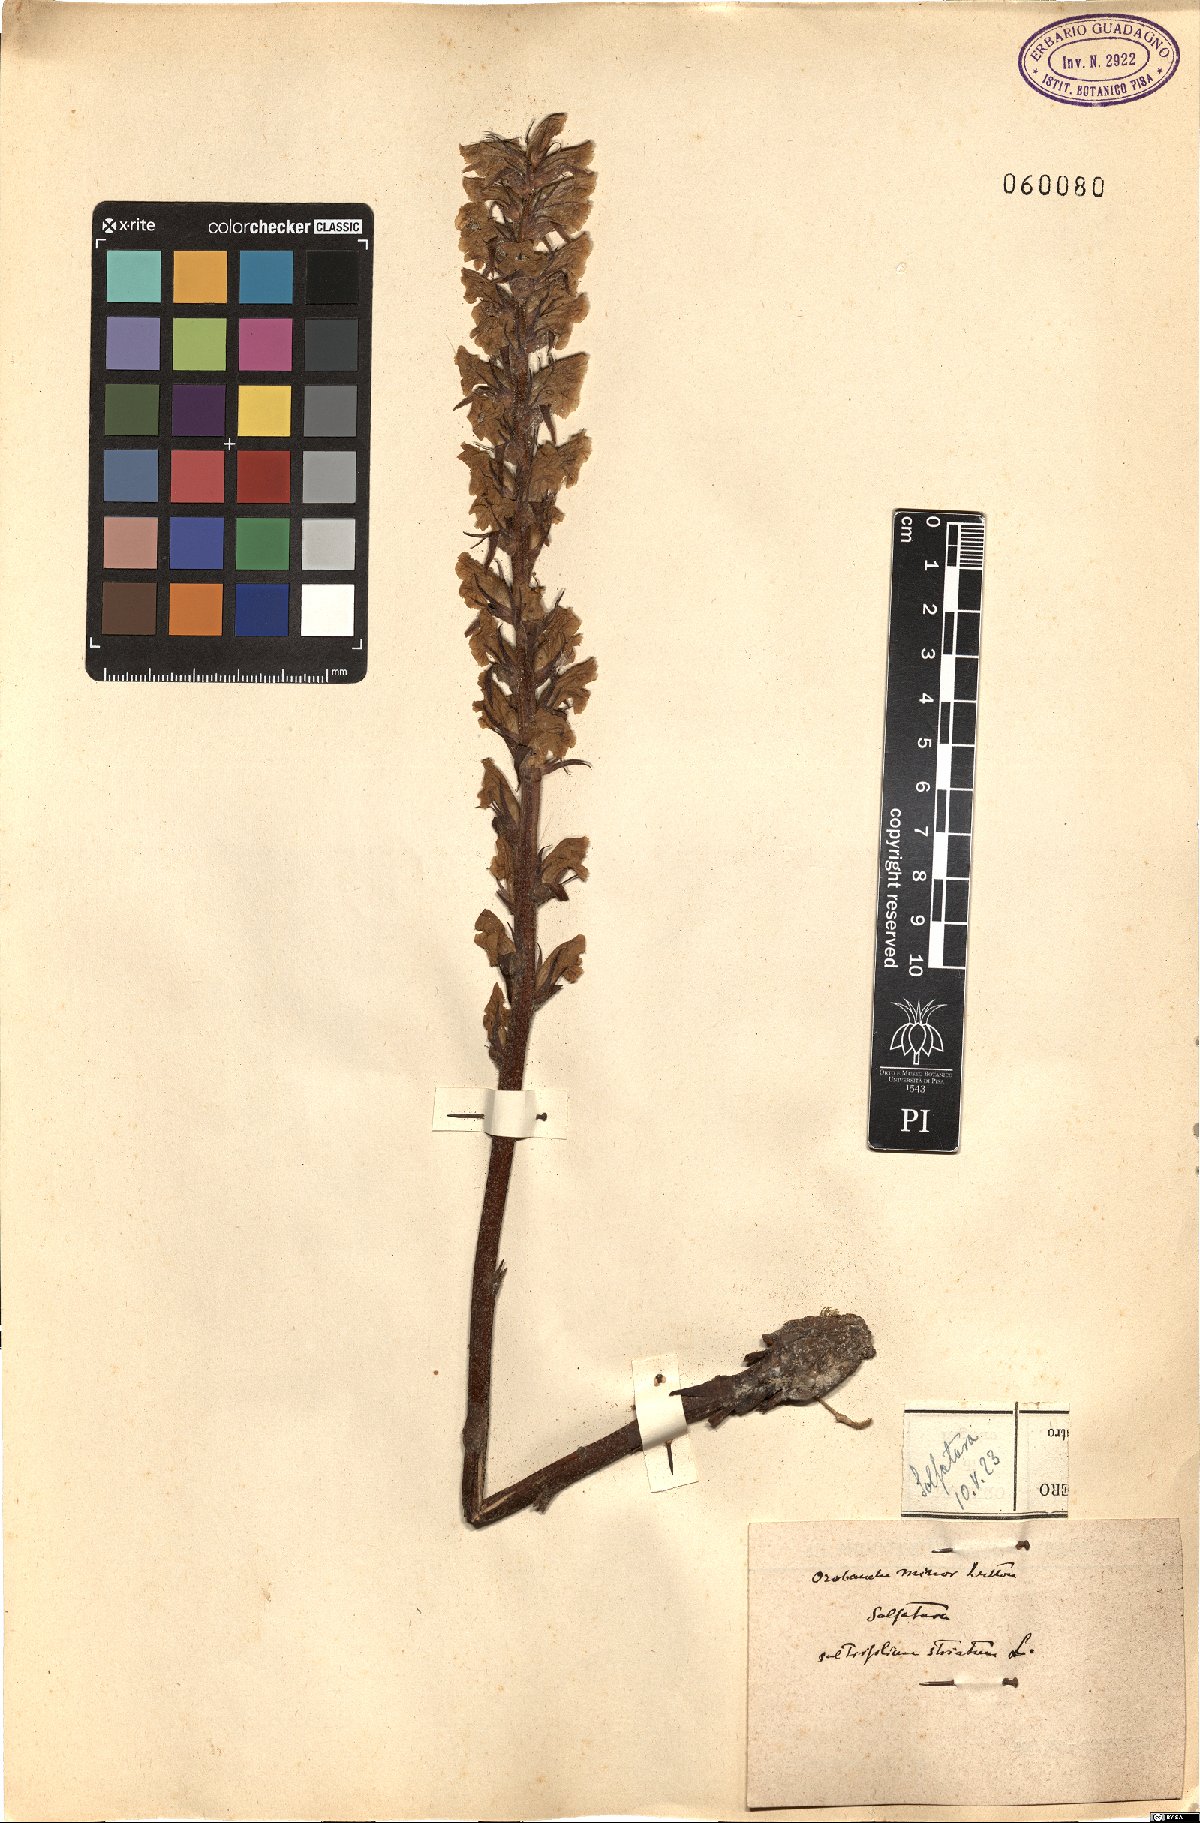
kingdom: Plantae
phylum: Tracheophyta
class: Magnoliopsida
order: Lamiales
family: Orobanchaceae
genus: Orobanche
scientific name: Orobanche minor
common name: Common broomrape
